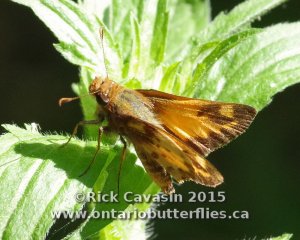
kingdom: Animalia
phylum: Arthropoda
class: Insecta
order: Lepidoptera
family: Hesperiidae
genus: Lon
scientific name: Lon zabulon
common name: Zabulon Skipper
